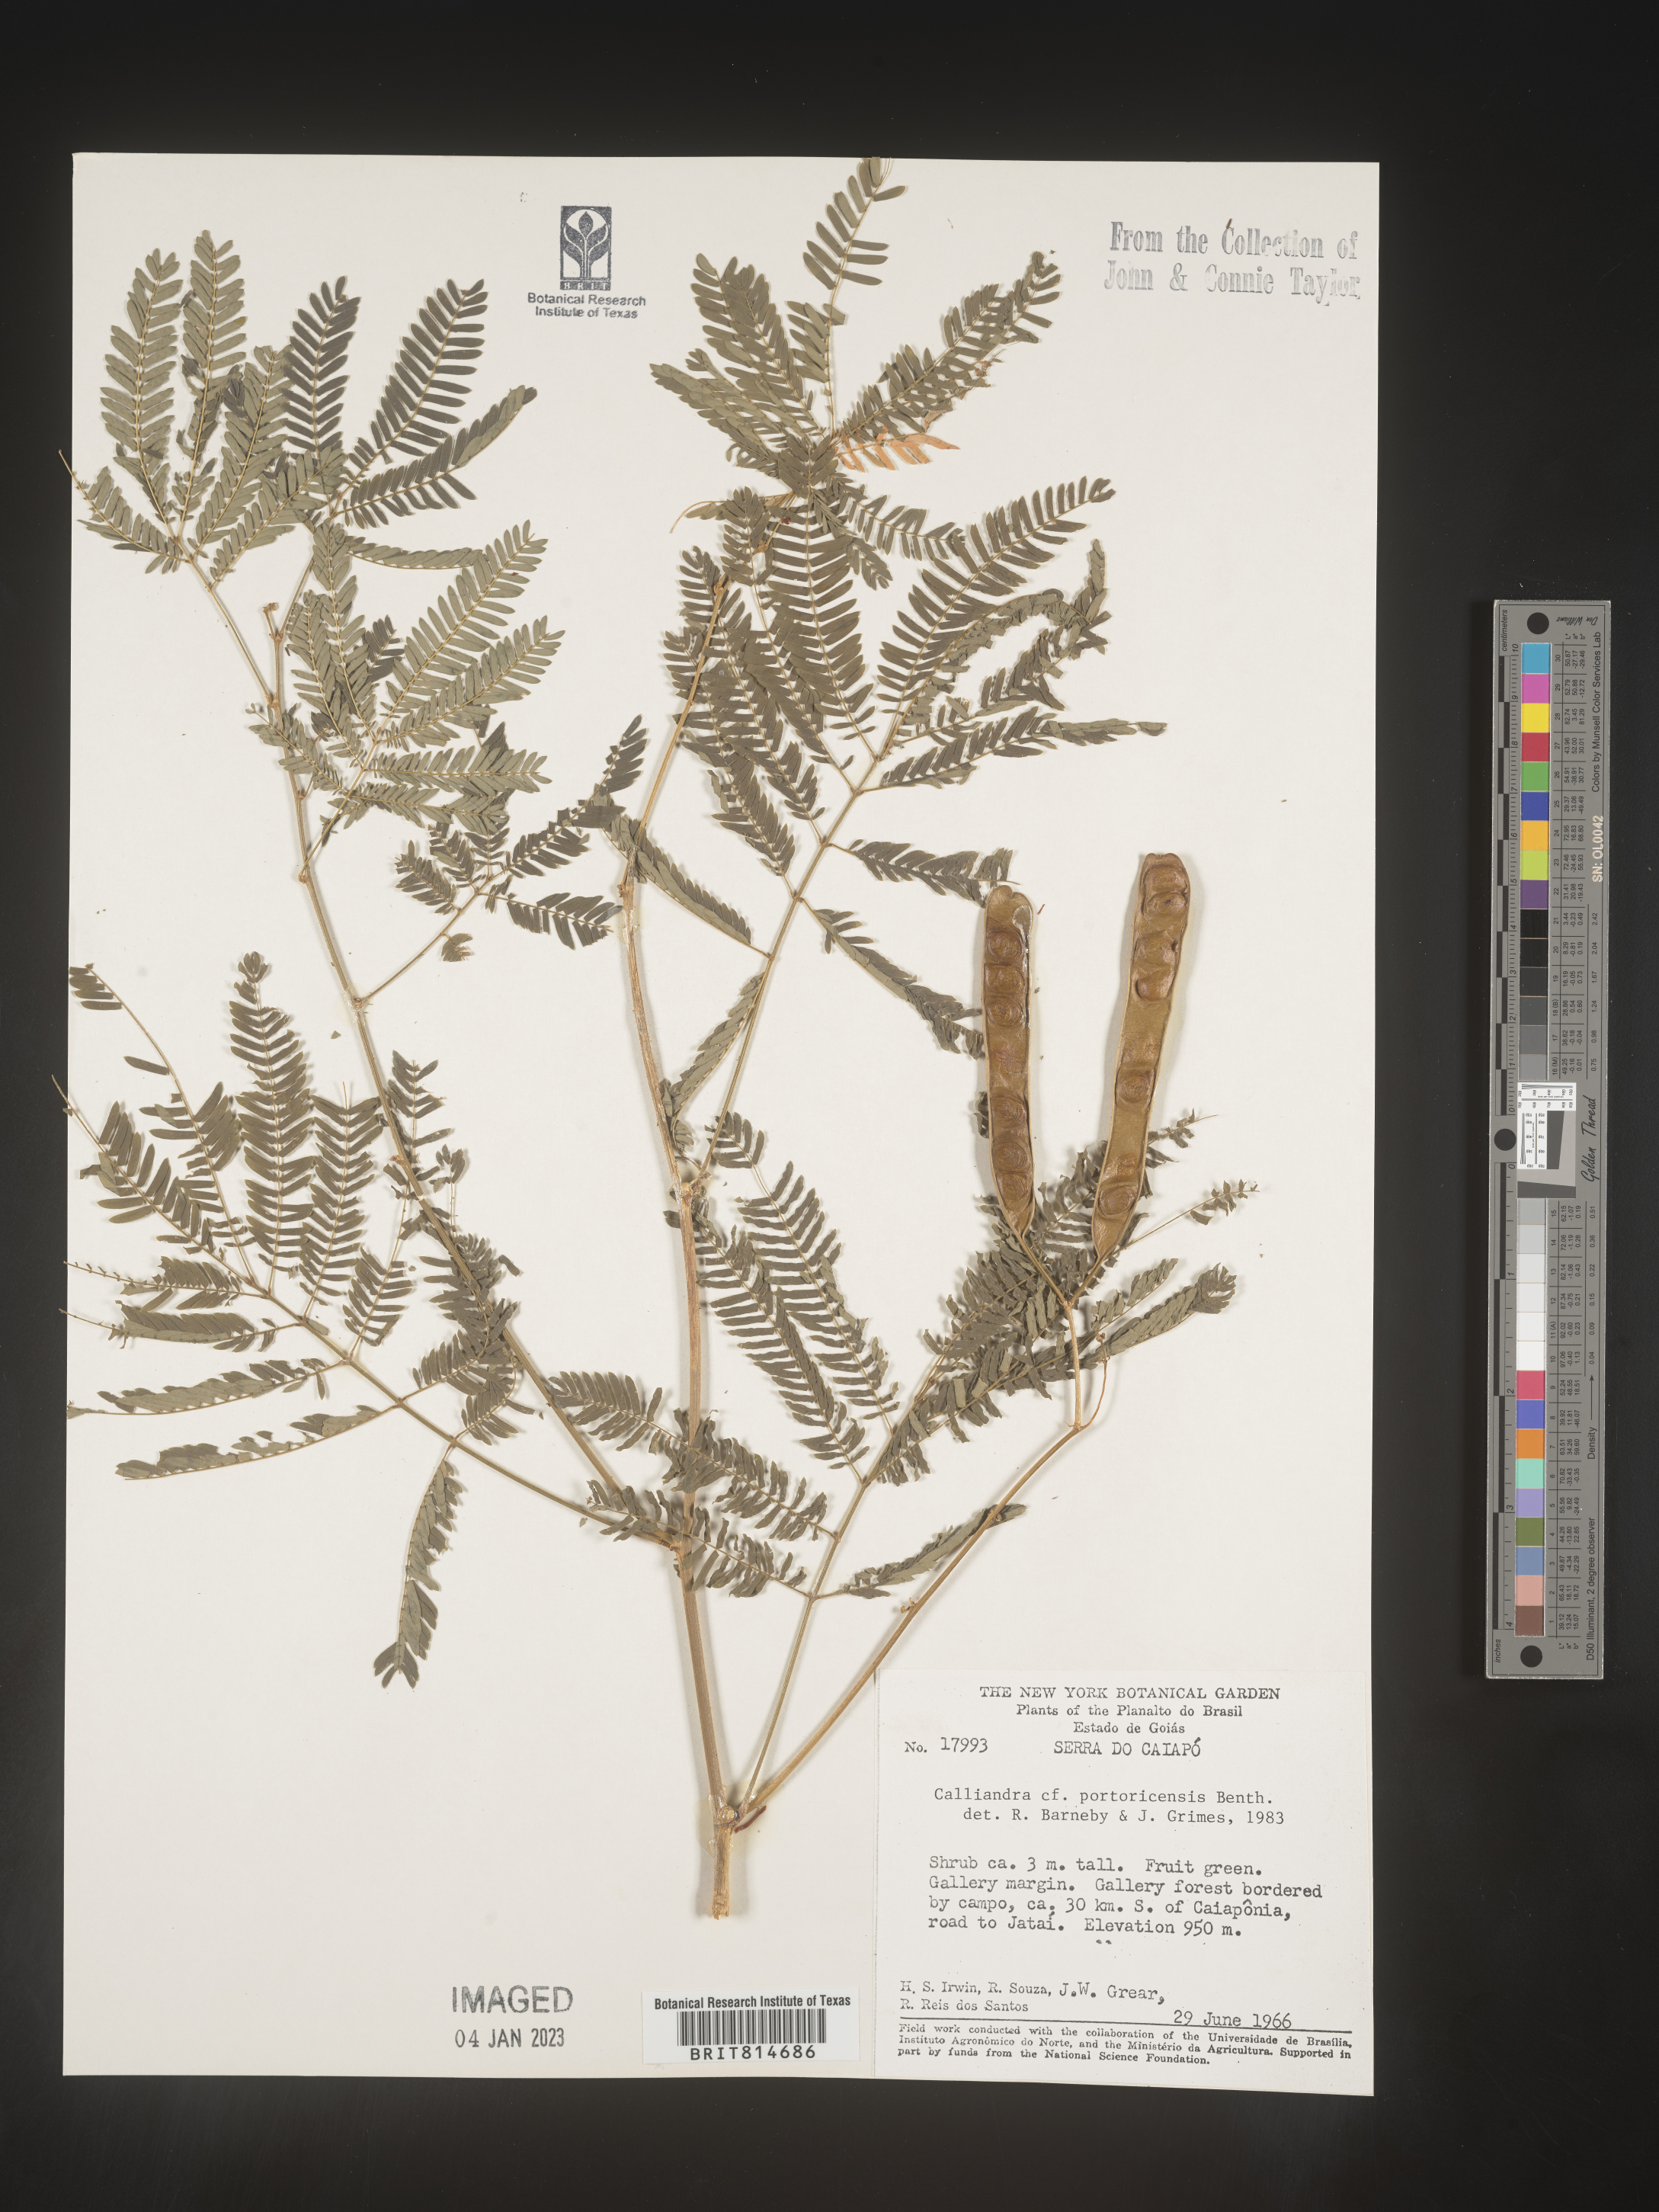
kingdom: Plantae
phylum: Tracheophyta
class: Magnoliopsida
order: Fabales
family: Fabaceae
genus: Calliandra
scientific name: Calliandra
